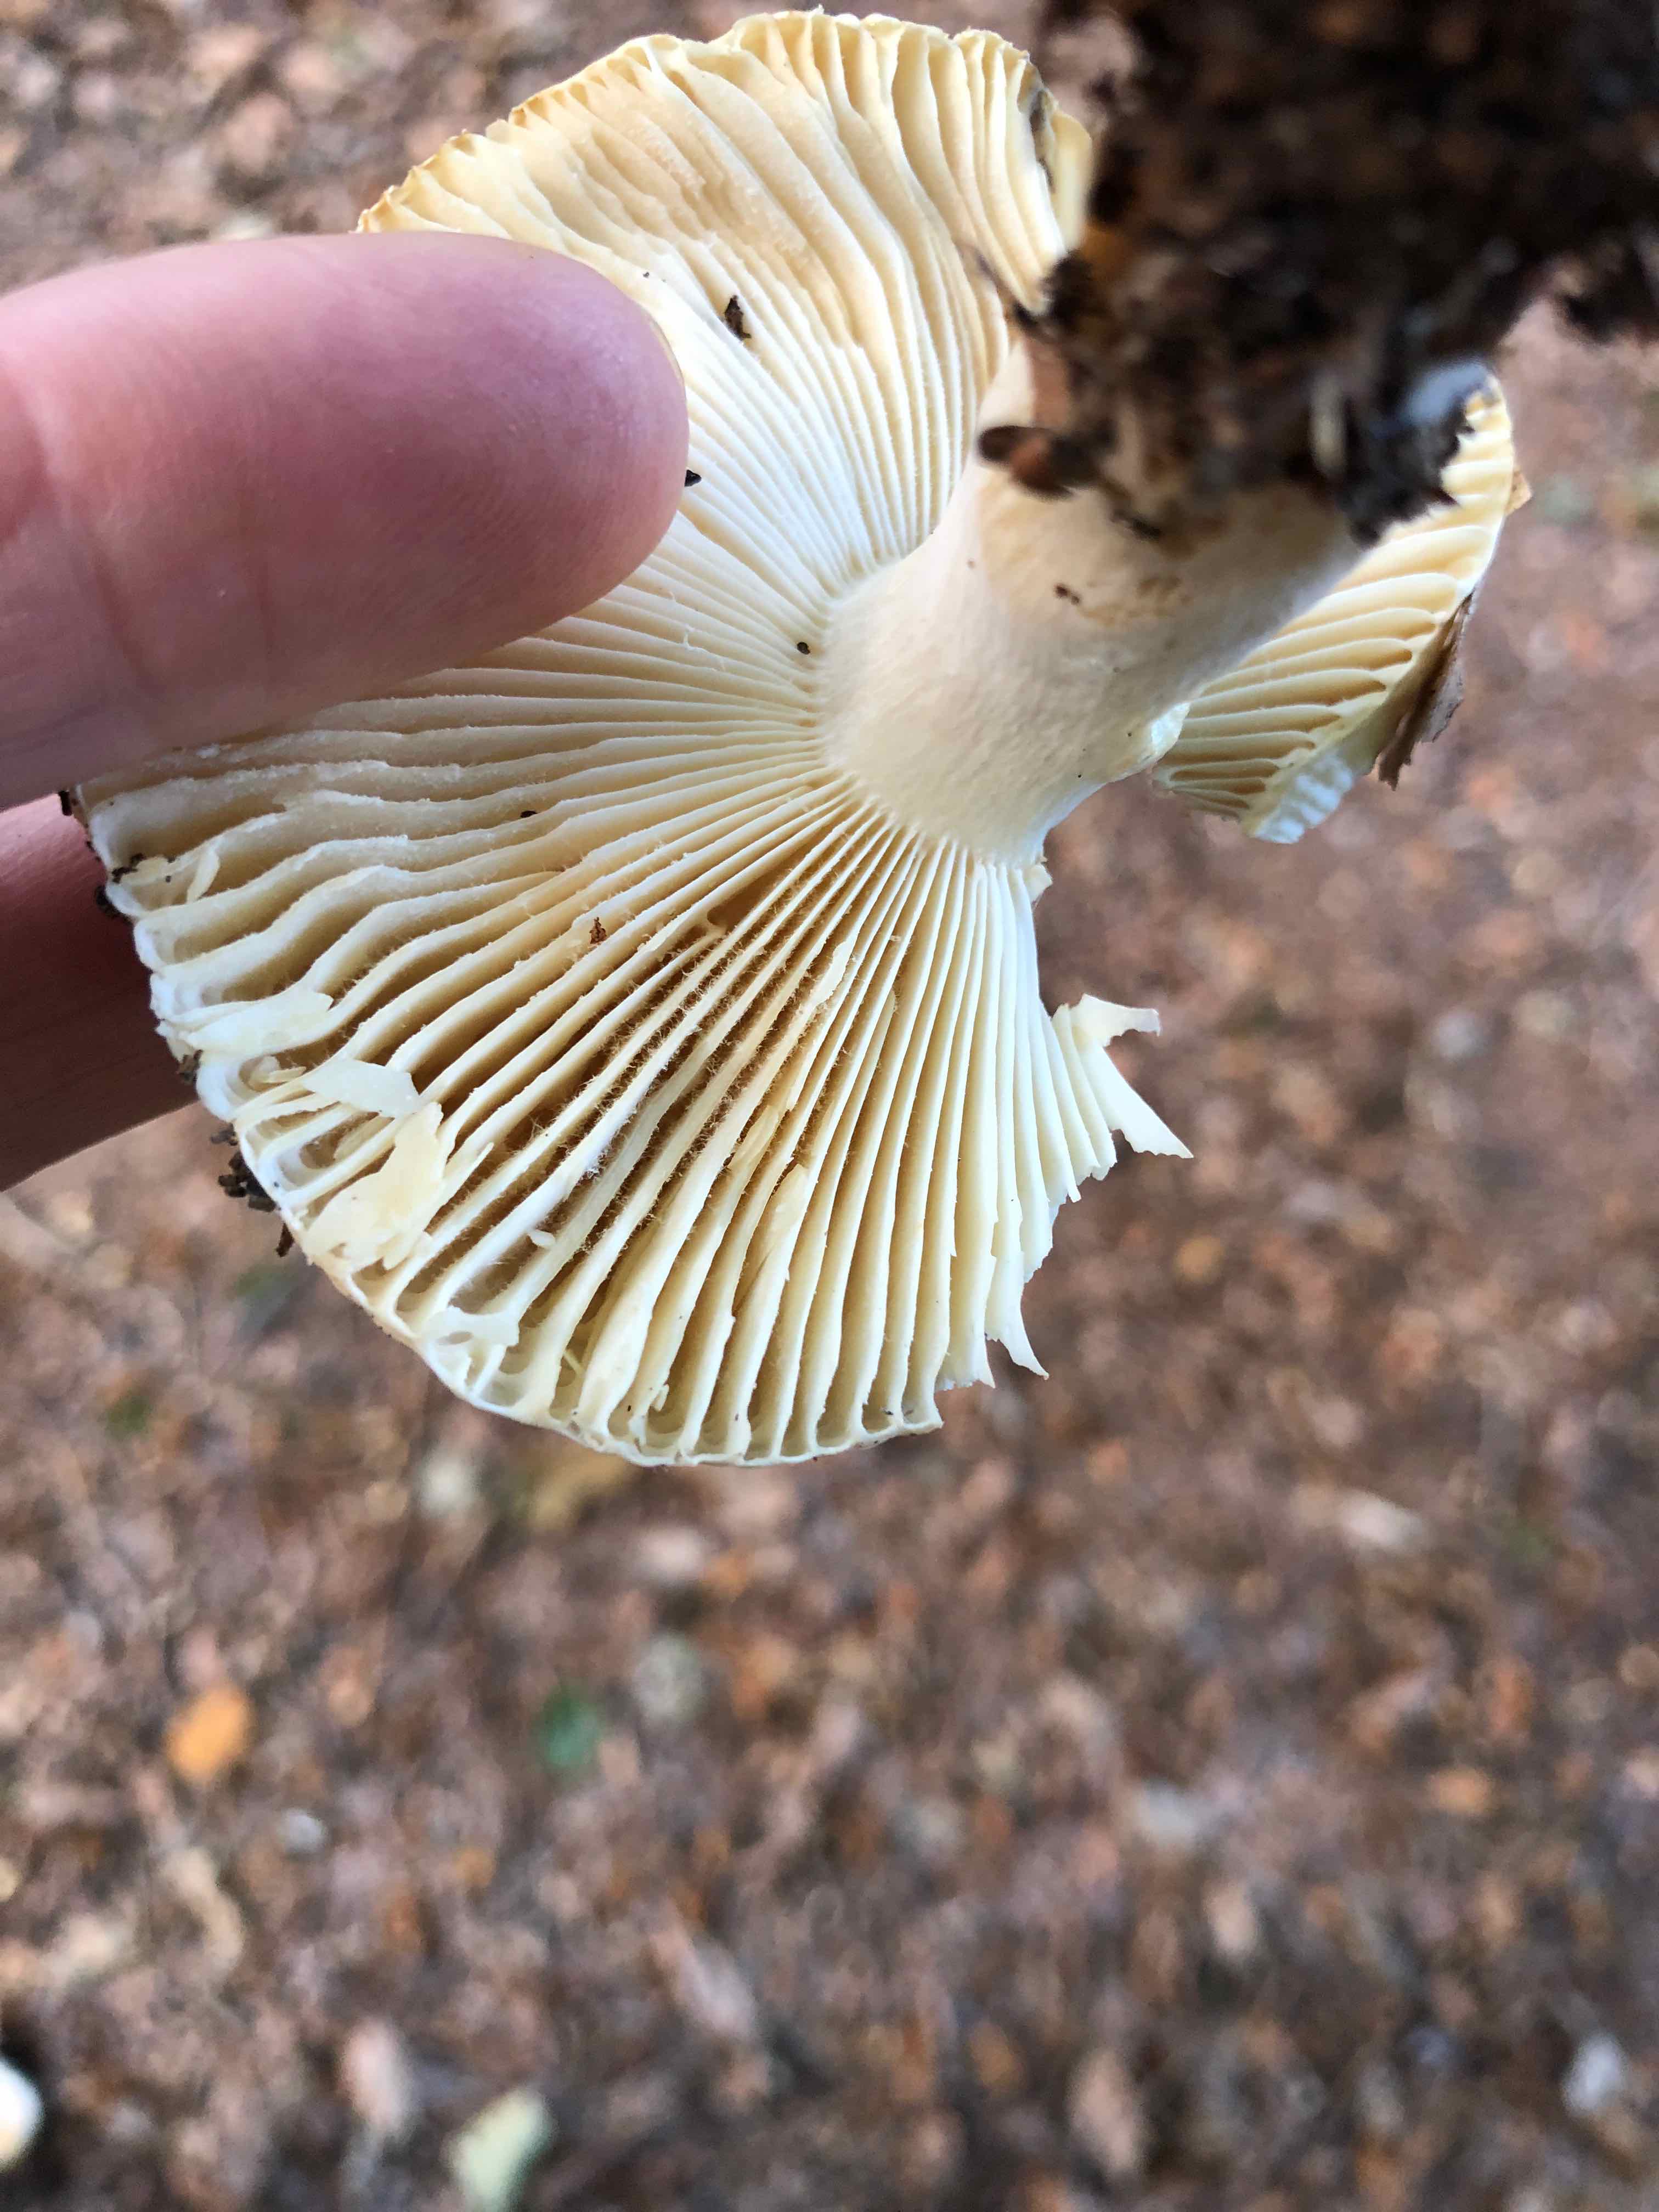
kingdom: Fungi
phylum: Basidiomycota
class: Agaricomycetes
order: Russulales
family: Russulaceae
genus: Russula
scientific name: Russula fellea
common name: galde-skørhat
